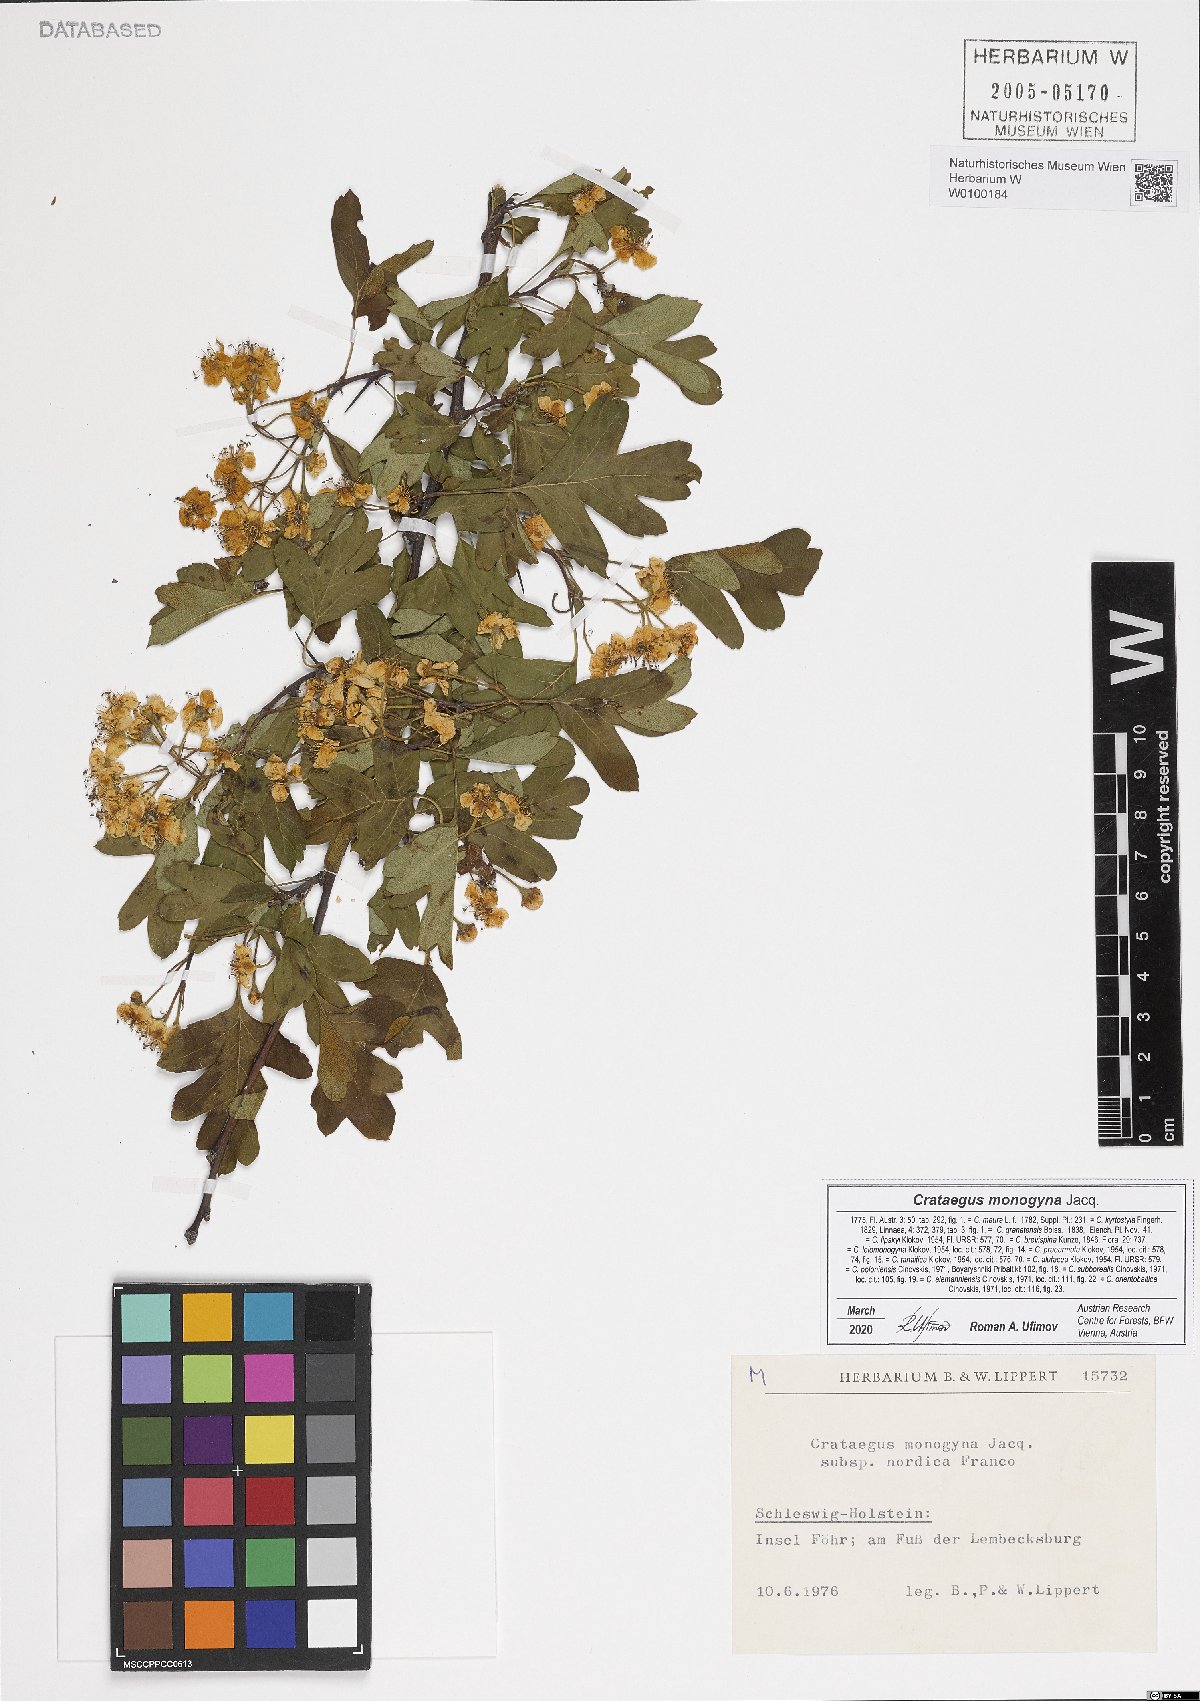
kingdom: Plantae
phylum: Tracheophyta
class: Magnoliopsida
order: Rosales
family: Rosaceae
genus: Crataegus
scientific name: Crataegus monogyna
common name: Hawthorn
